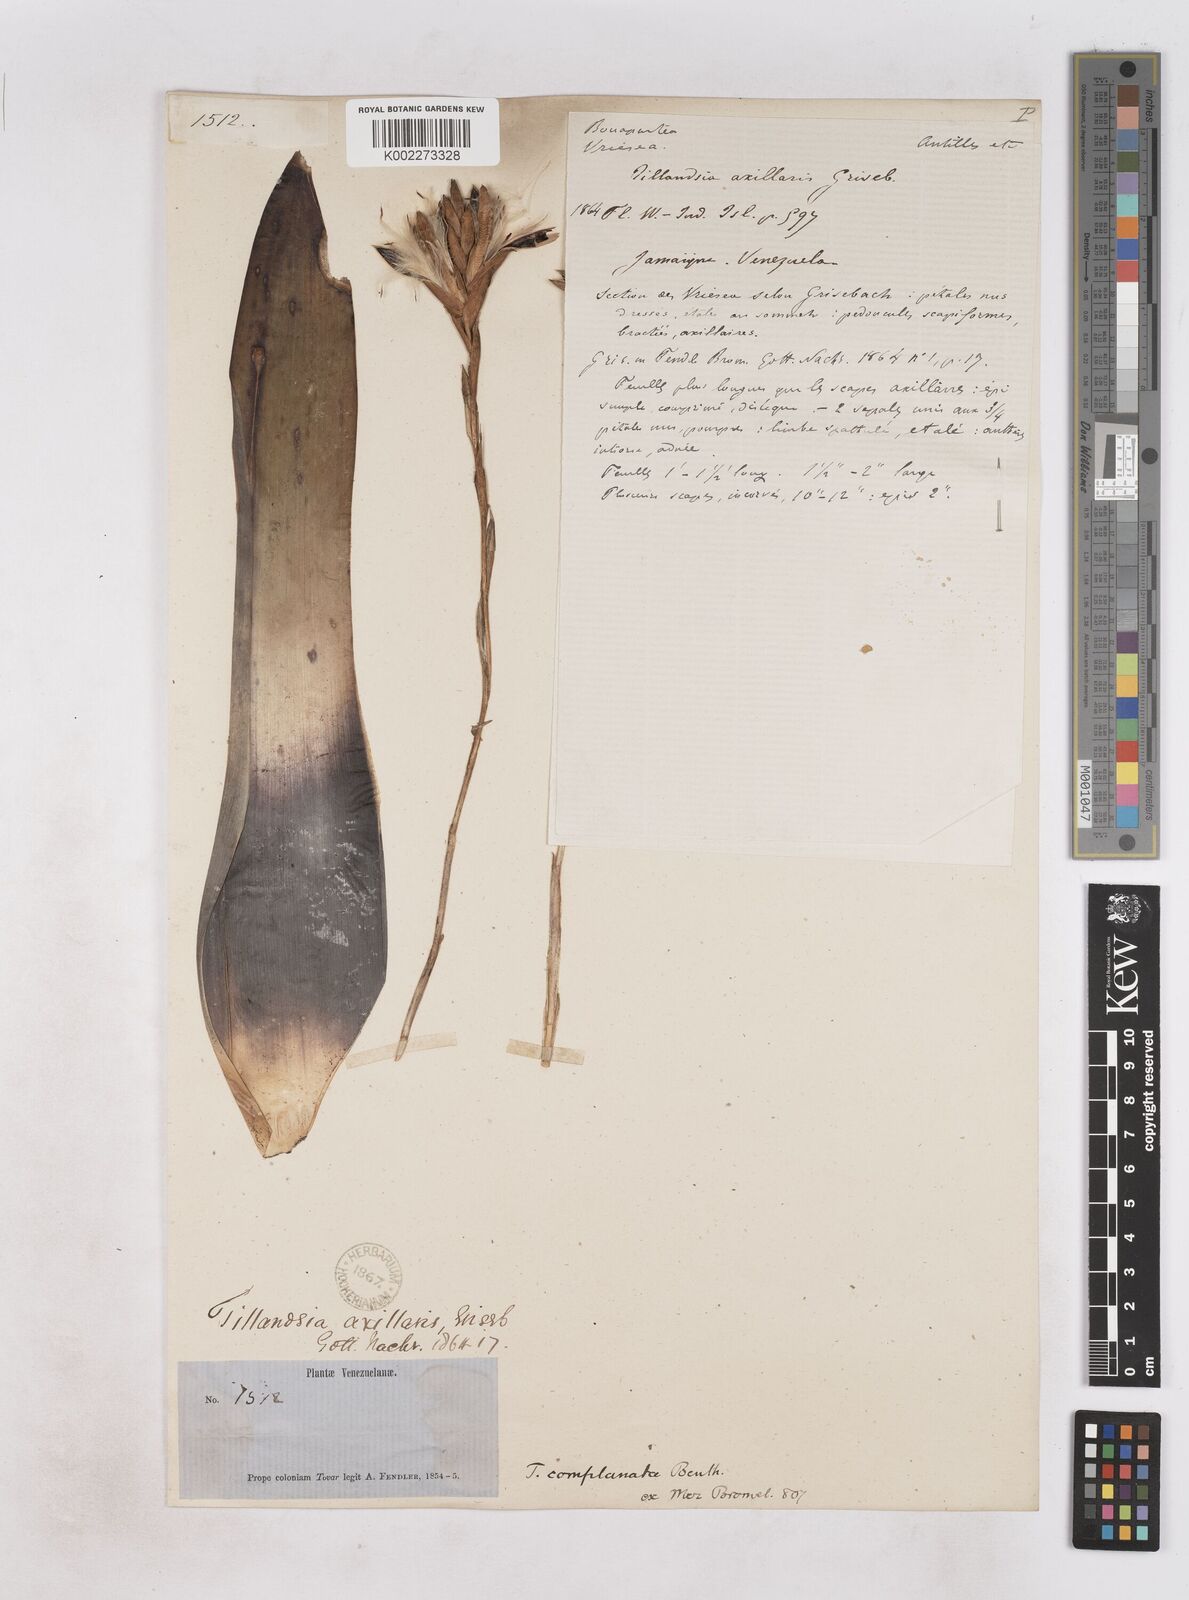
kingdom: Plantae
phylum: Tracheophyta
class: Liliopsida
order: Poales
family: Bromeliaceae
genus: Tillandsia
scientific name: Tillandsia complanata
